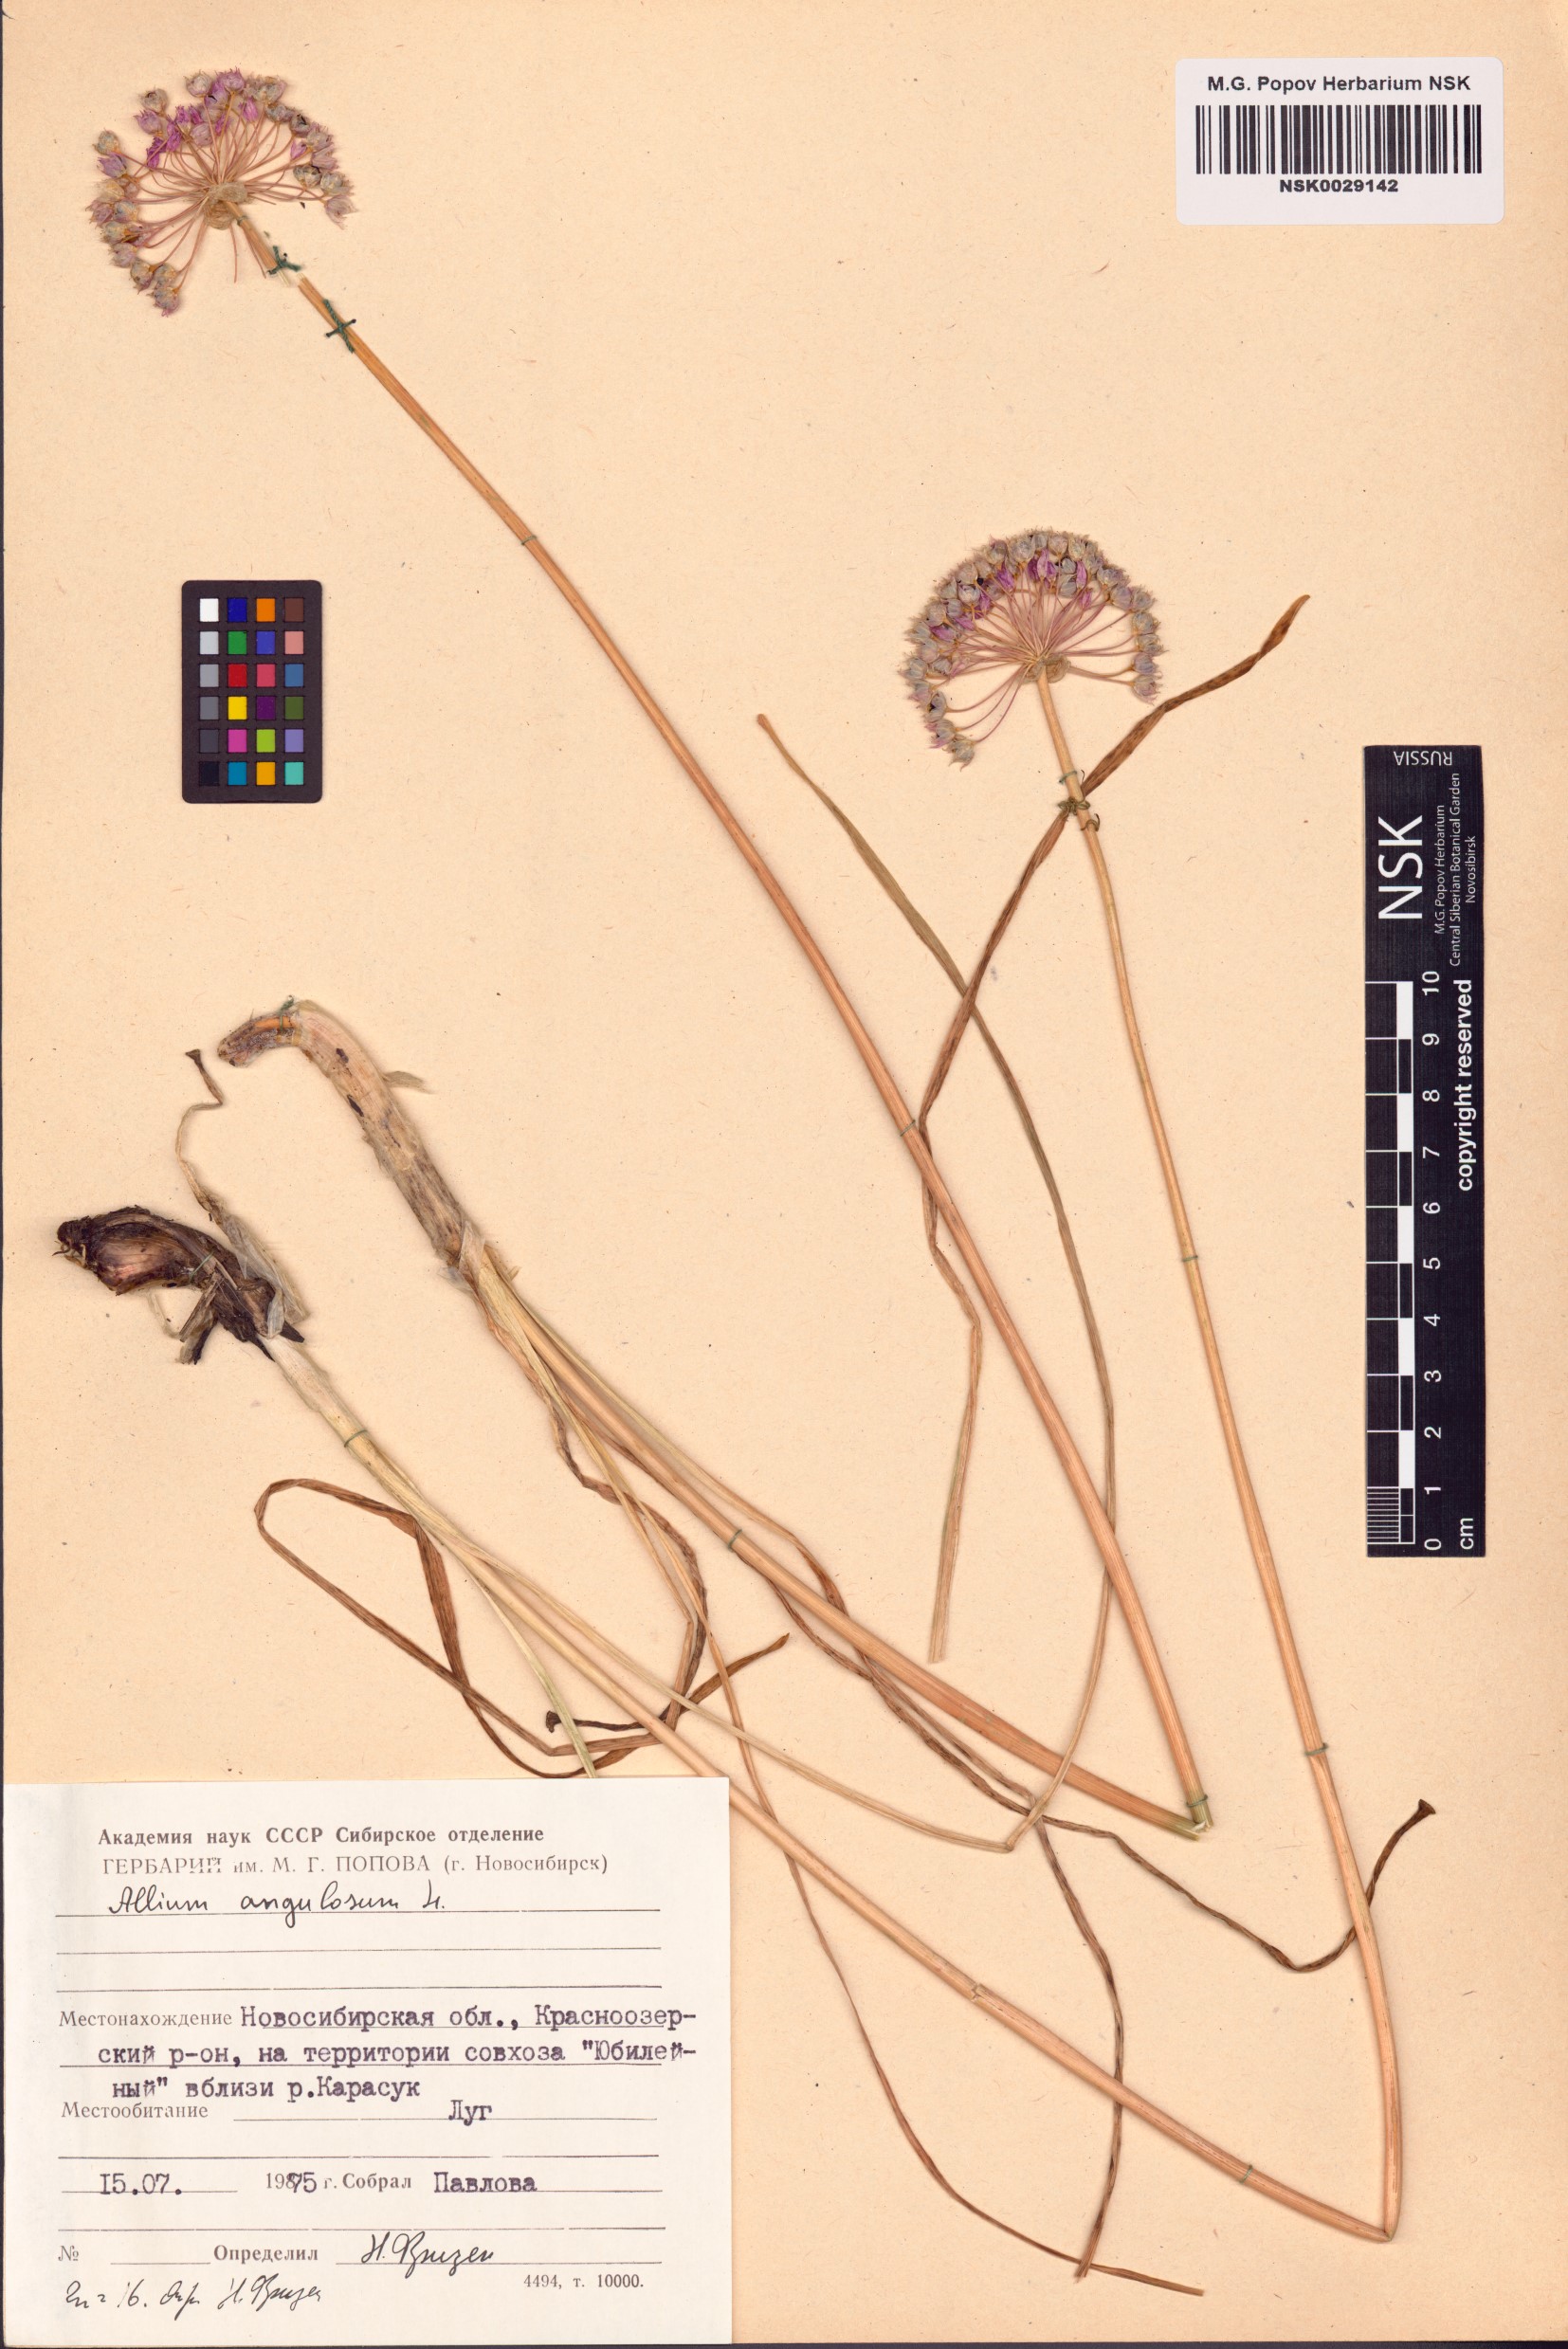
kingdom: Plantae
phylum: Tracheophyta
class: Liliopsida
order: Asparagales
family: Amaryllidaceae
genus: Allium
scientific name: Allium angulosum
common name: Mouse garlic
